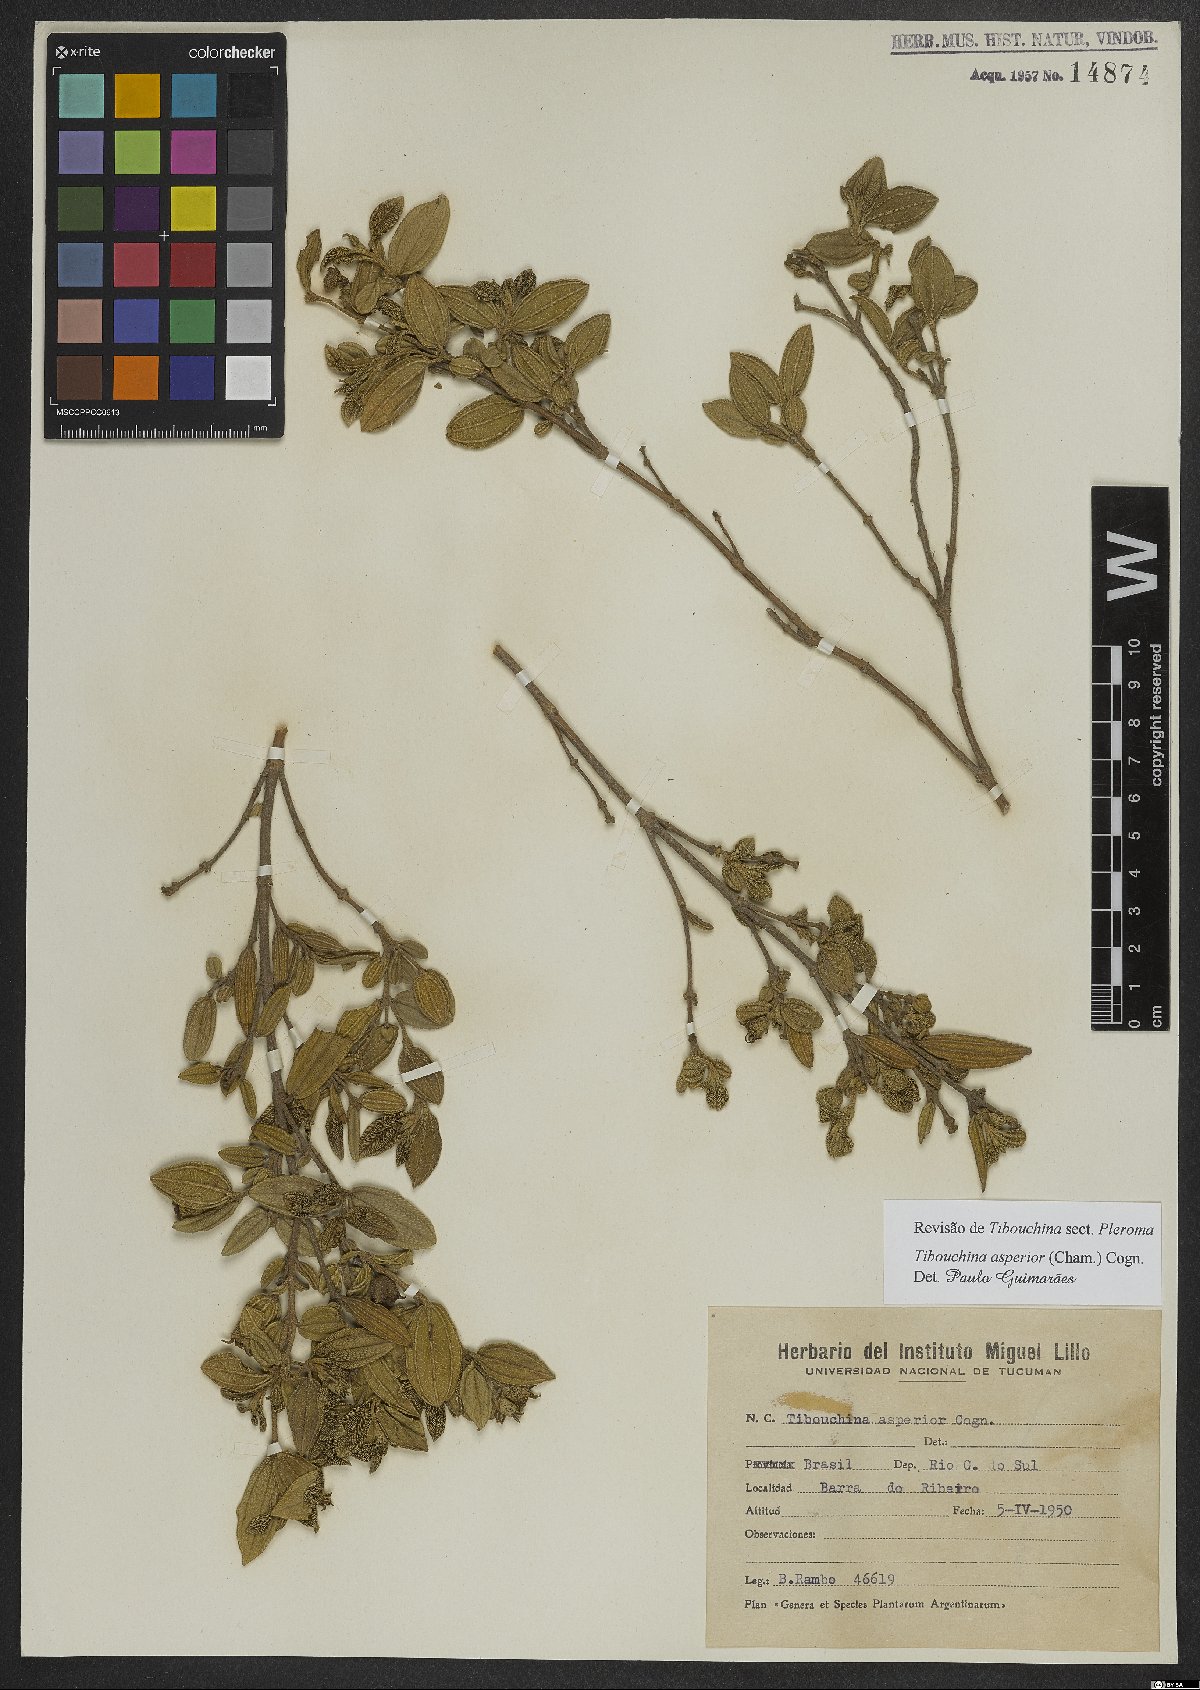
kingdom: Plantae
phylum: Tracheophyta
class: Magnoliopsida
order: Myrtales
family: Melastomataceae
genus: Pleroma
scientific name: Pleroma asperius
